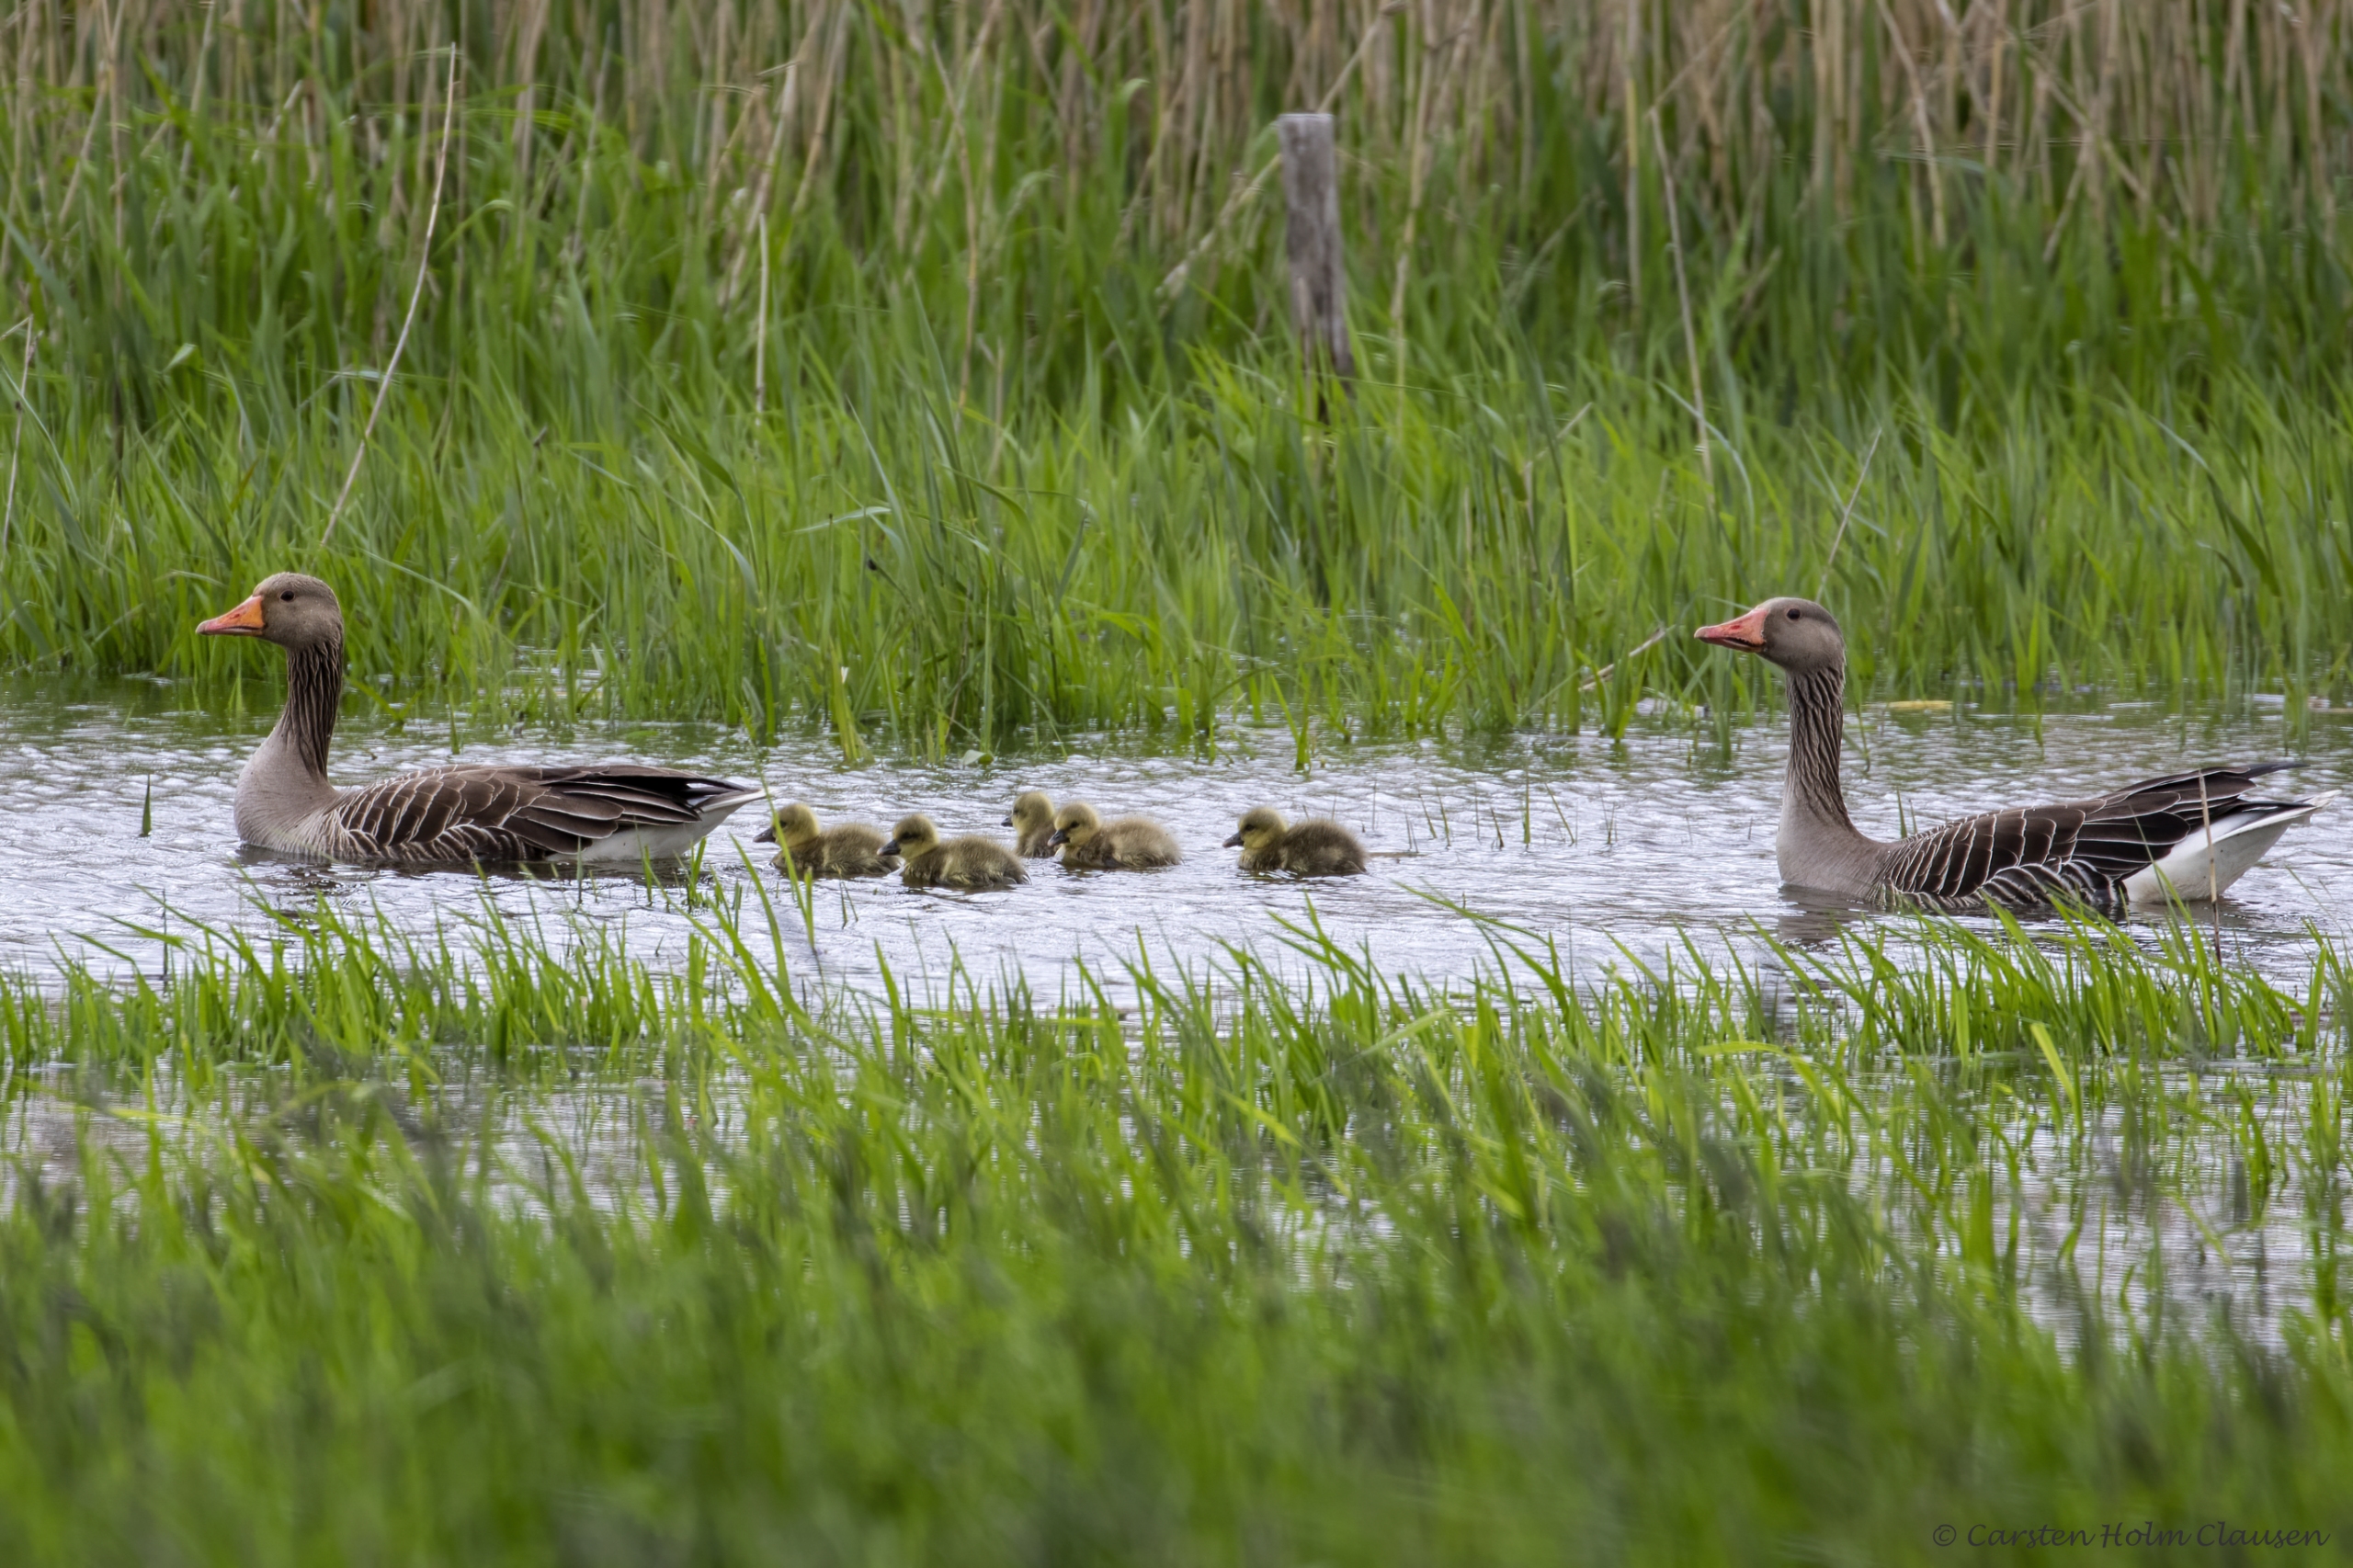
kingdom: Animalia
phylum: Chordata
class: Aves
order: Anseriformes
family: Anatidae
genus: Anser
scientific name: Anser anser
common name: Grågås
